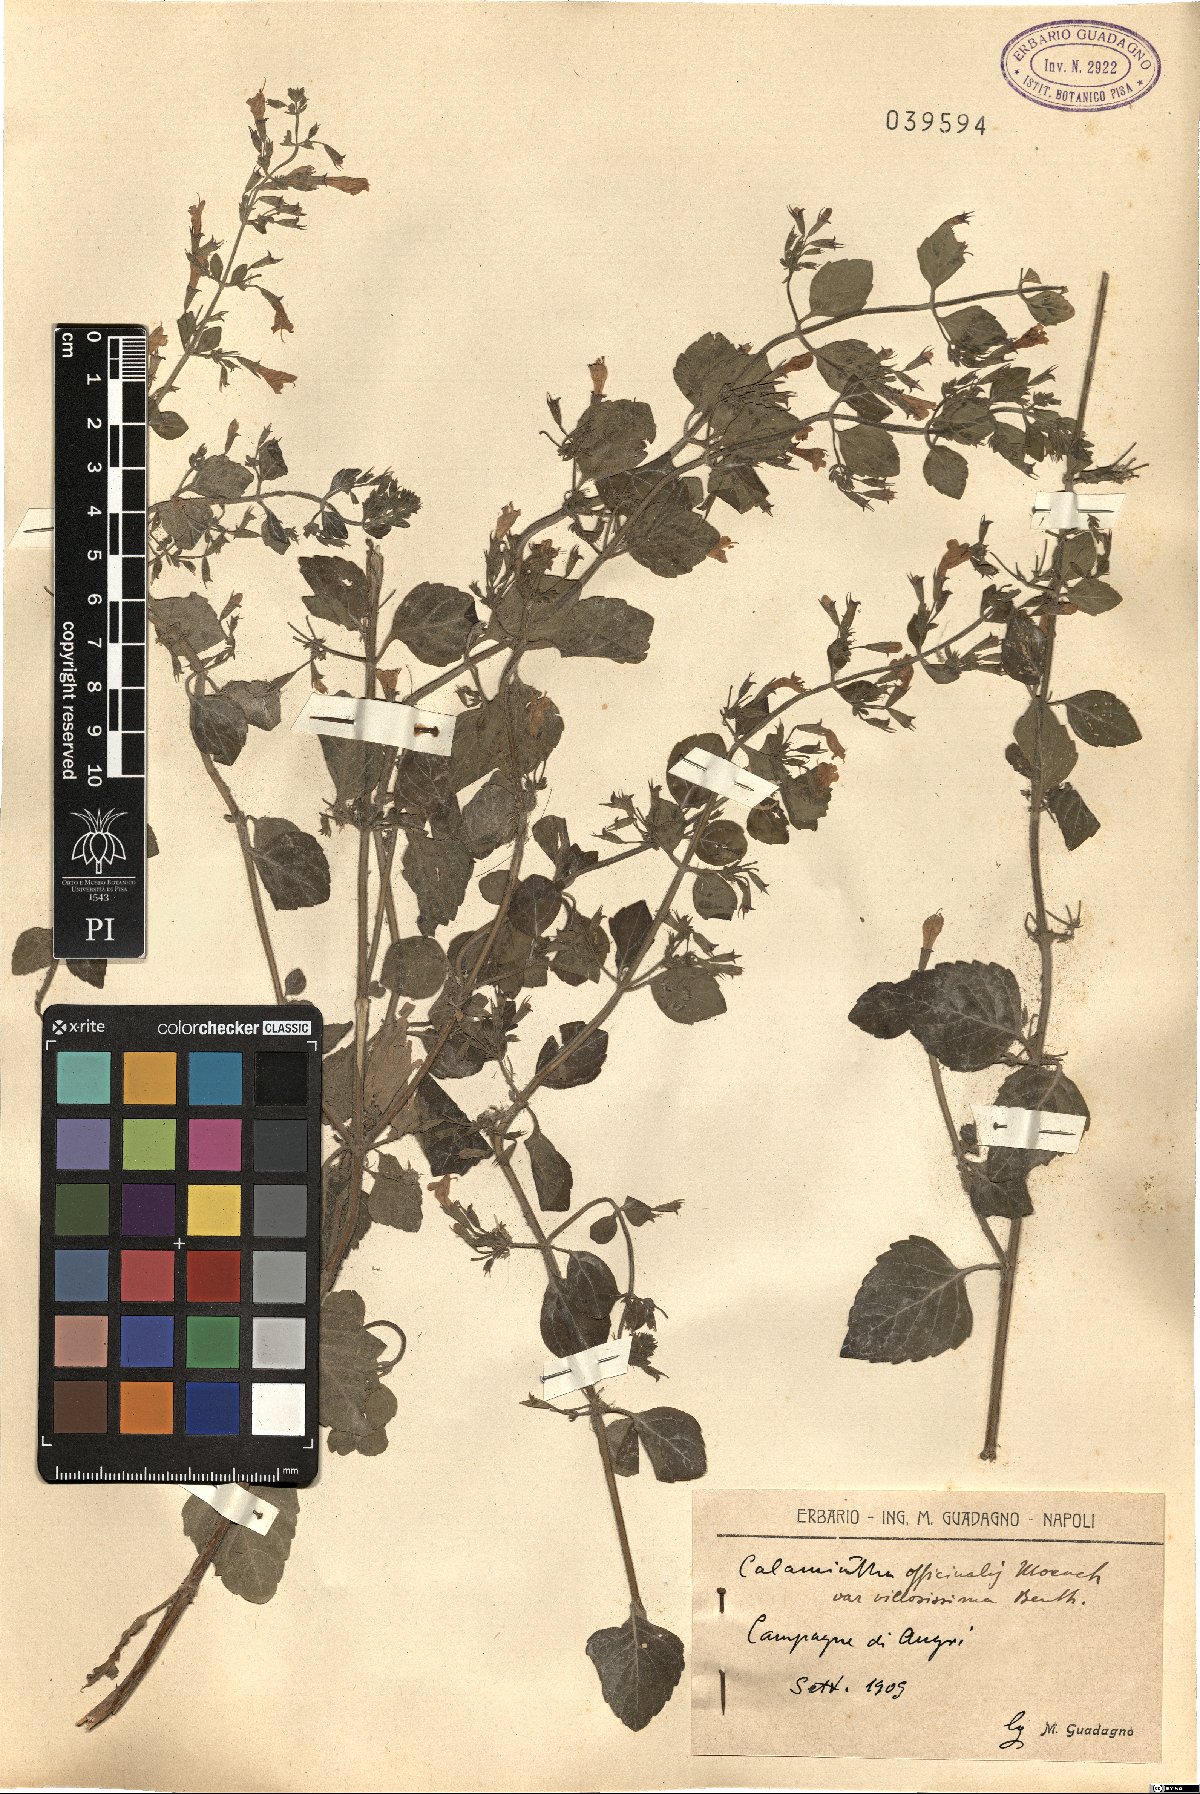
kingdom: Plantae
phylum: Tracheophyta
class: Magnoliopsida
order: Lamiales
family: Lamiaceae
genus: Clinopodium
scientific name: Clinopodium nepeta
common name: Lesser calamint
